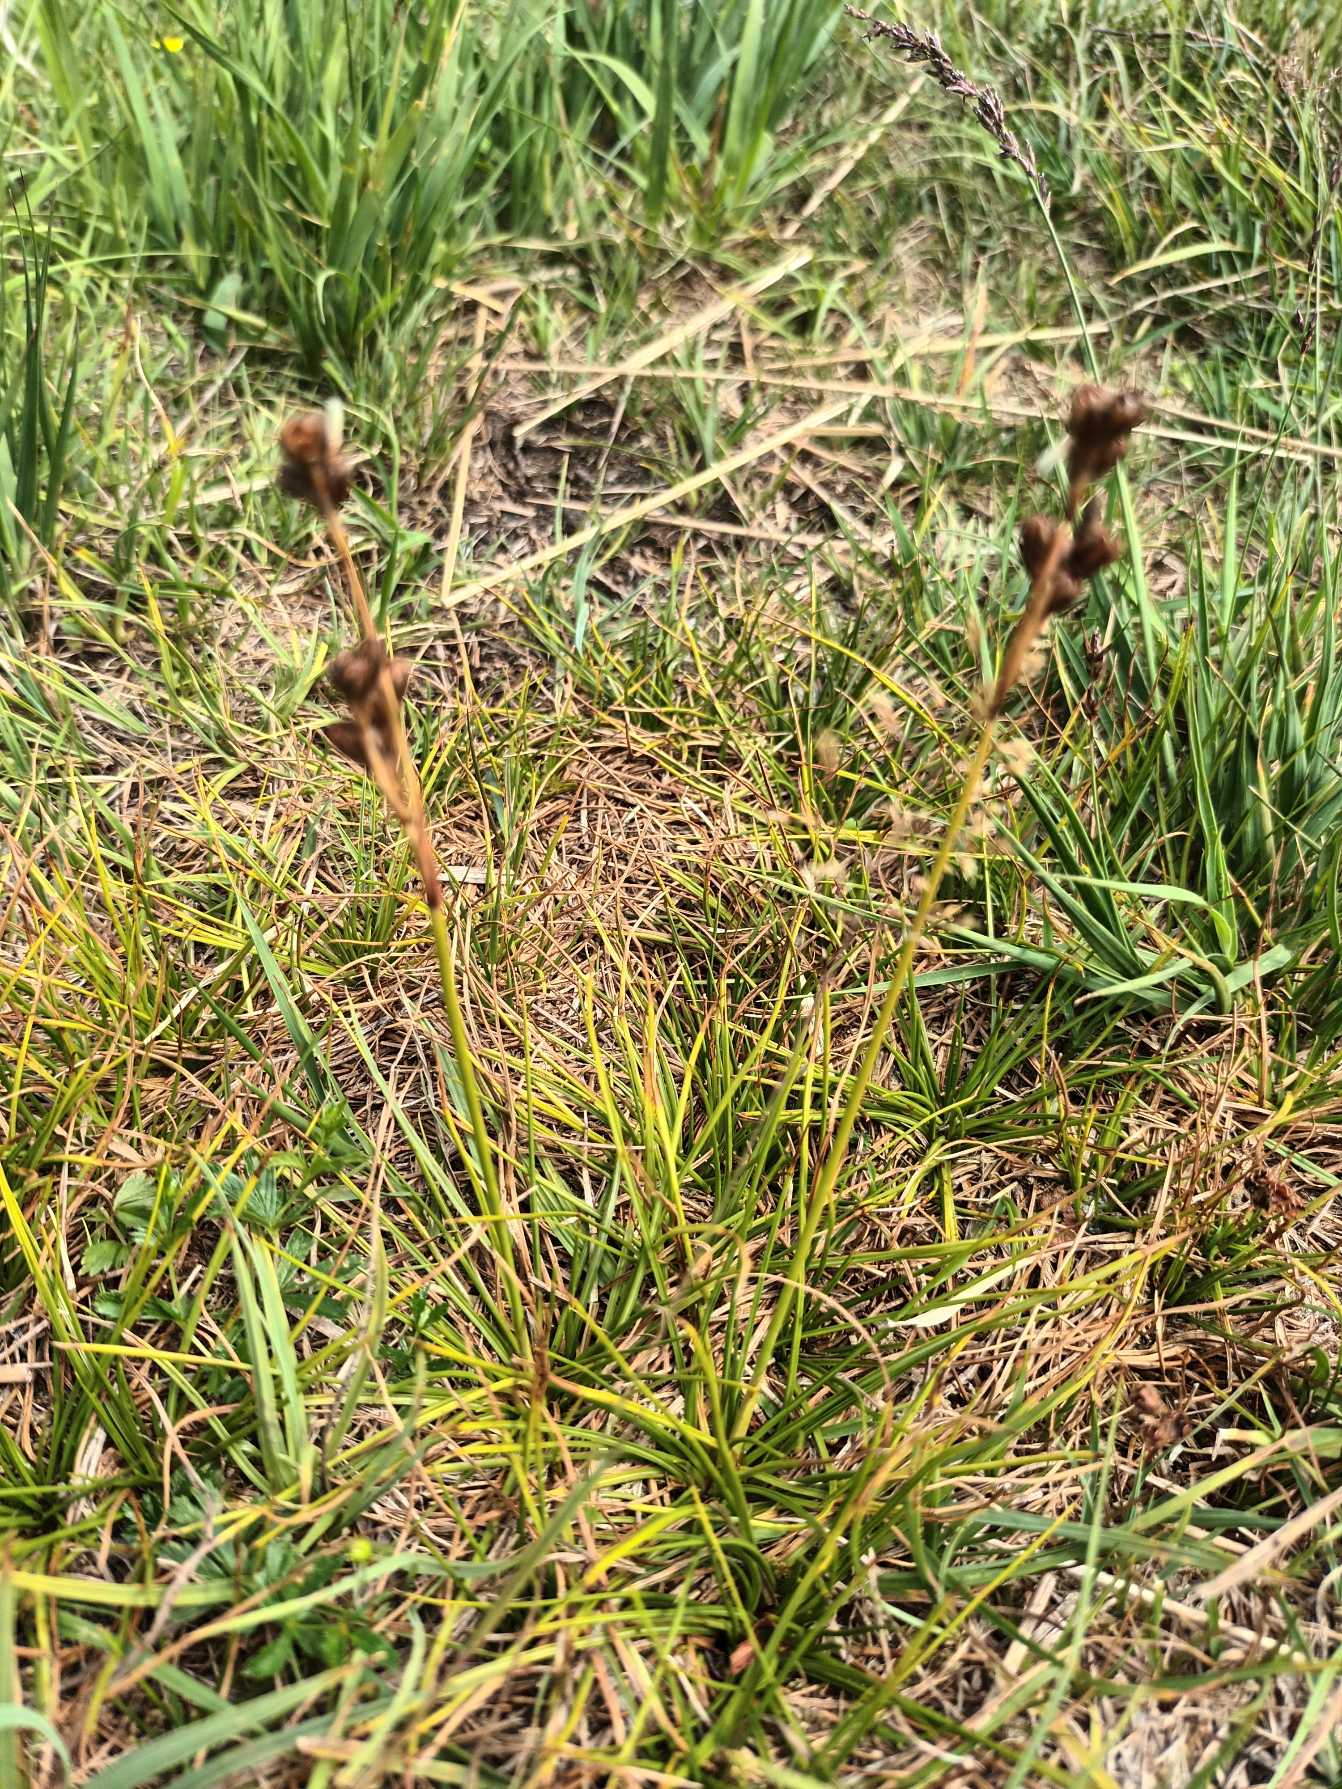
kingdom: Plantae
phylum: Tracheophyta
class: Liliopsida
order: Poales
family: Juncaceae
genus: Juncus
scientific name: Juncus squarrosus
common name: Børste-siv
